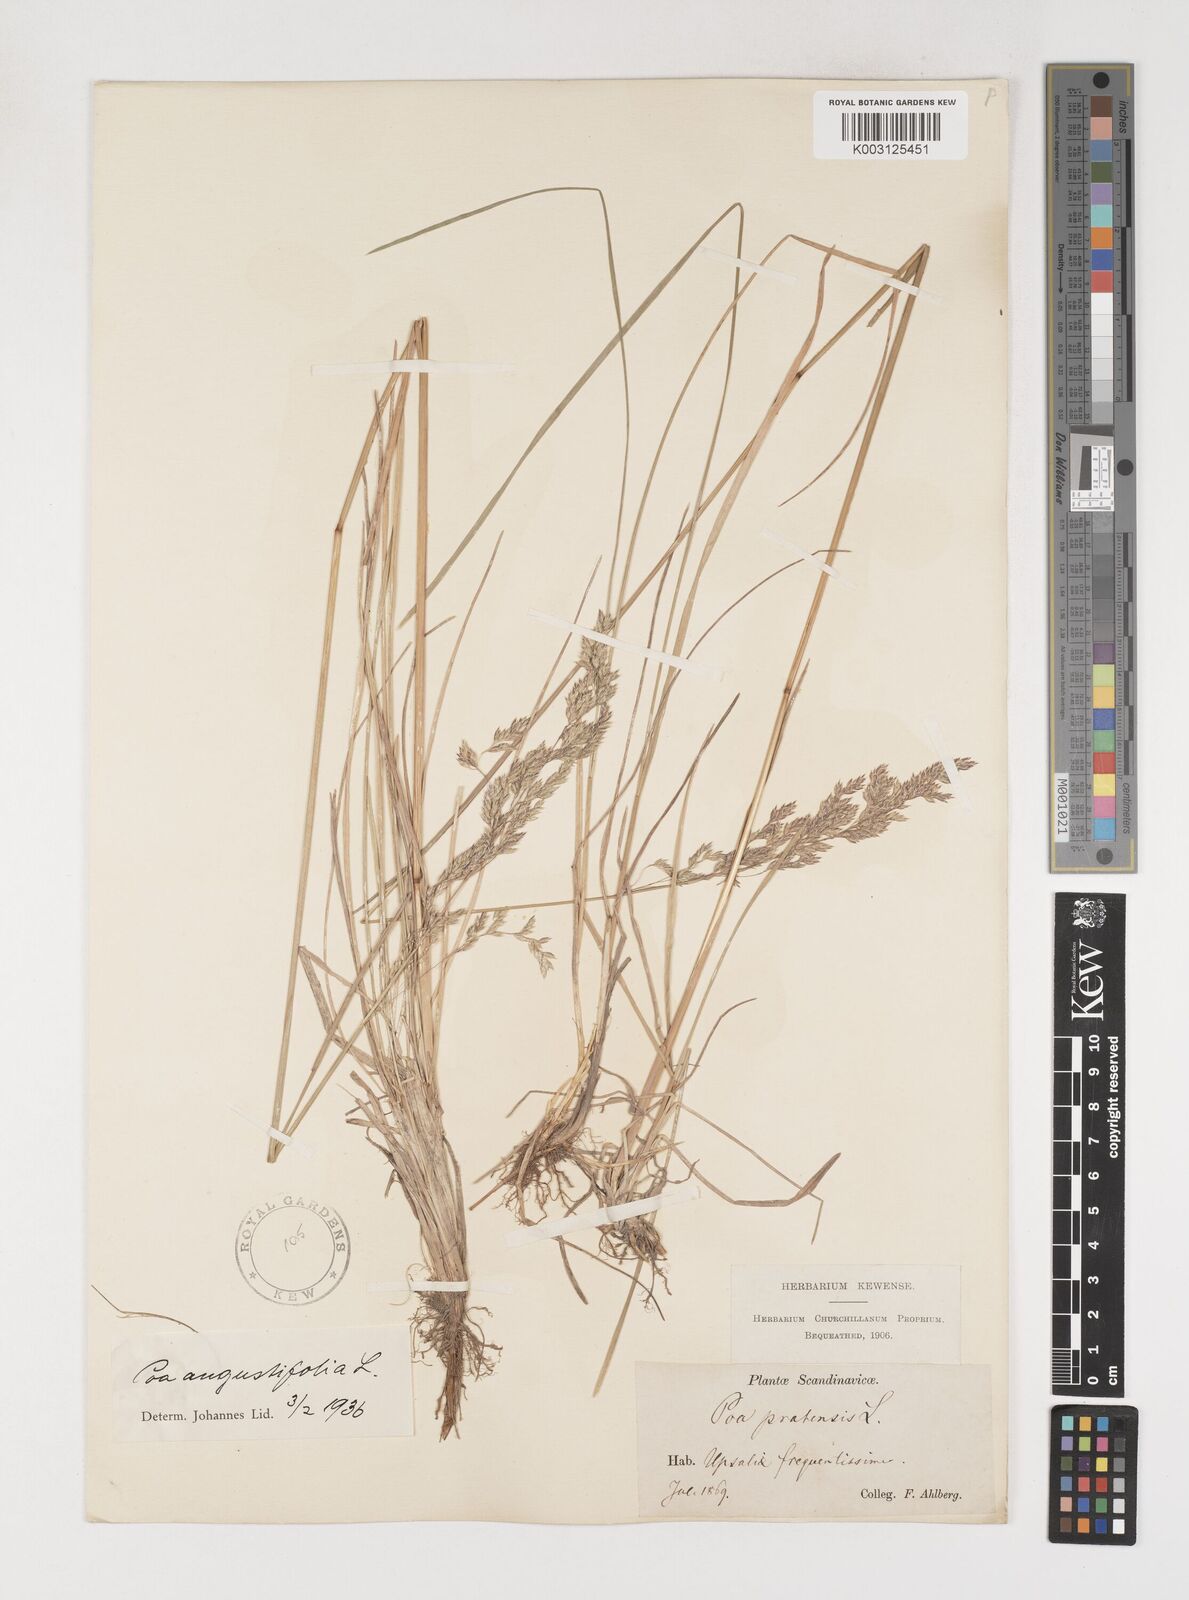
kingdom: Plantae
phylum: Tracheophyta
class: Liliopsida
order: Poales
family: Poaceae
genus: Poa
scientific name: Poa pratensis
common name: Kentucky bluegrass
